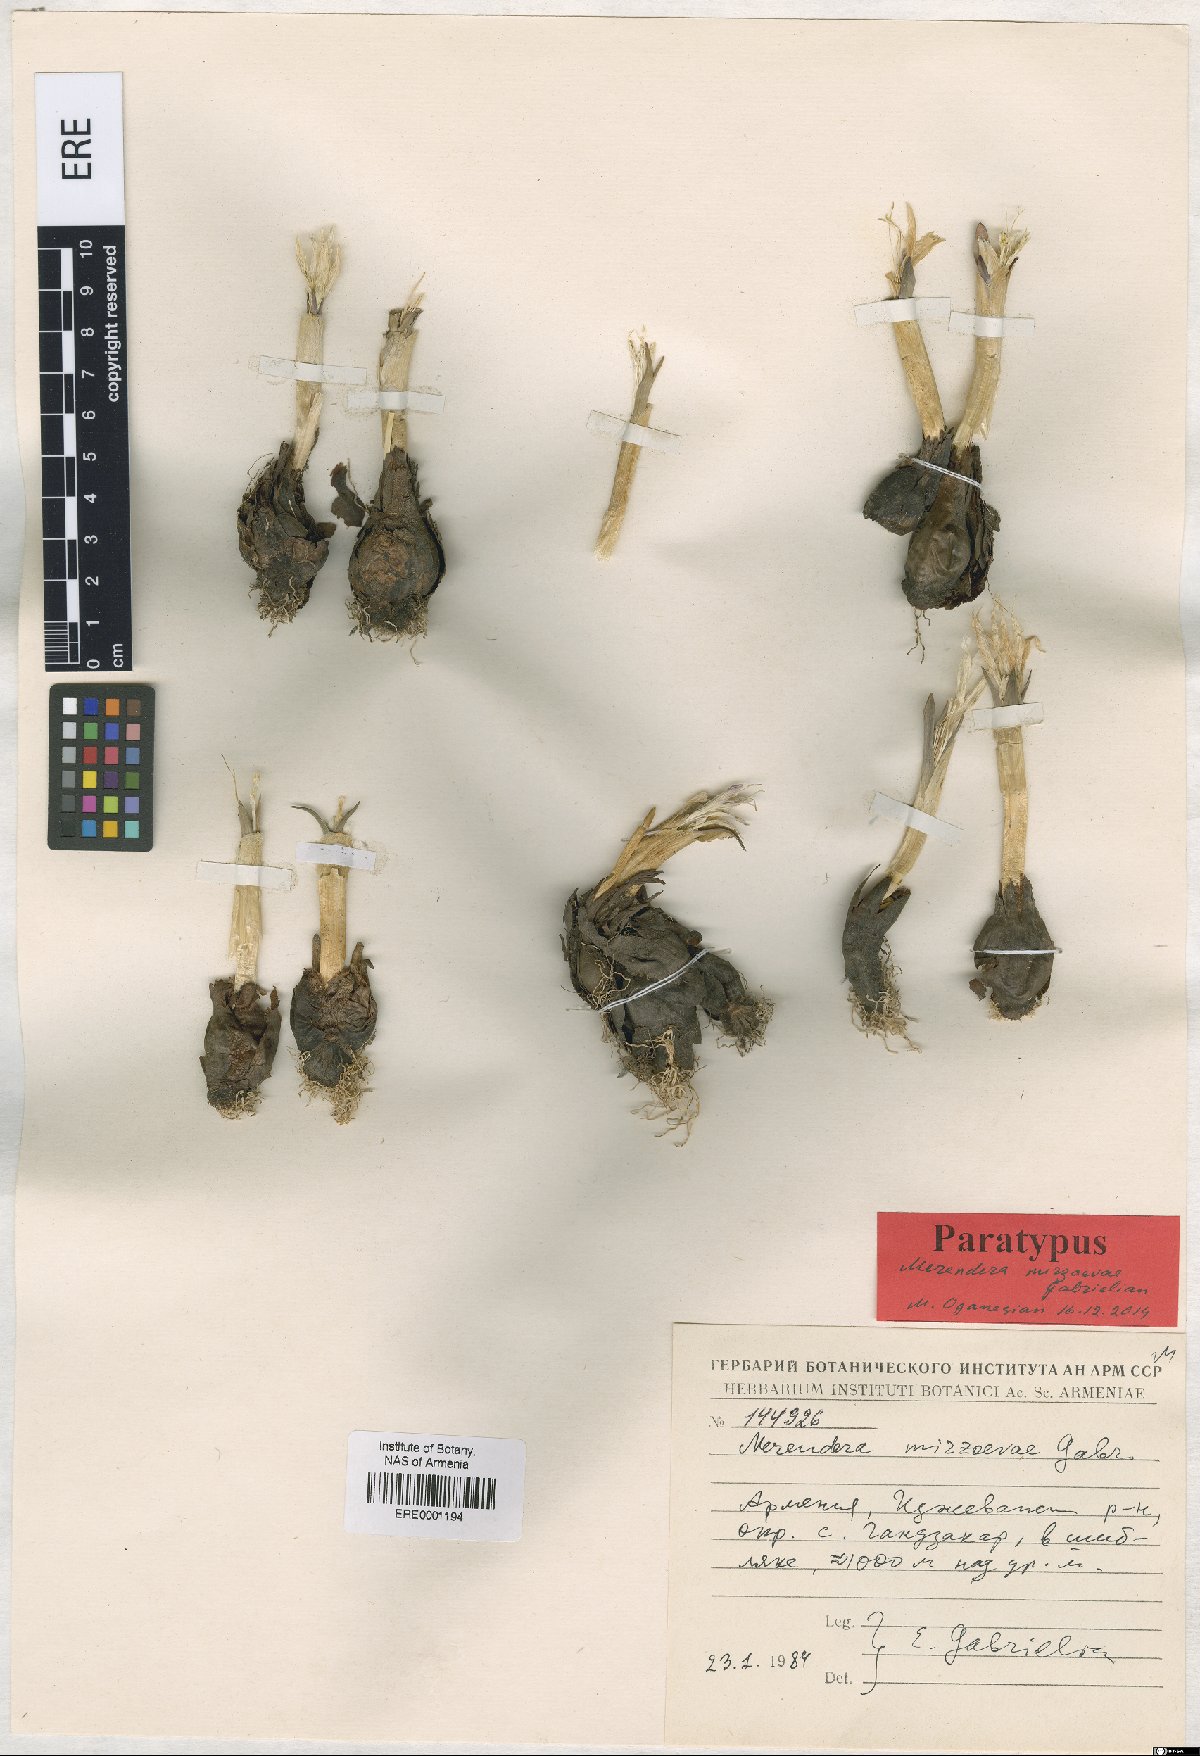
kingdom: Plantae
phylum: Tracheophyta
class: Liliopsida
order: Liliales
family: Colchicaceae
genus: Colchicum
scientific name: Colchicum trigynum
